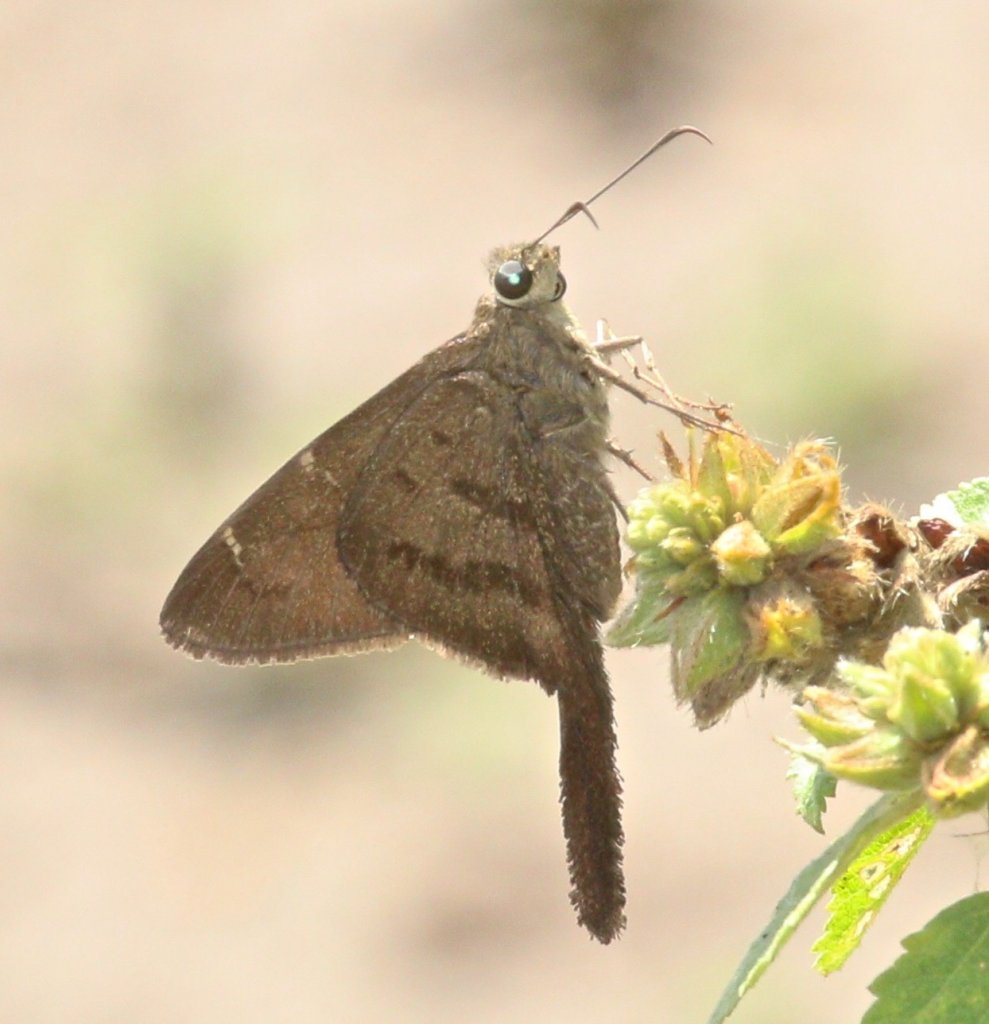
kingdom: Animalia
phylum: Arthropoda
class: Insecta
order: Lepidoptera
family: Hesperiidae
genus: Urbanus
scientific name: Urbanus procne
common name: Brown Longtail
